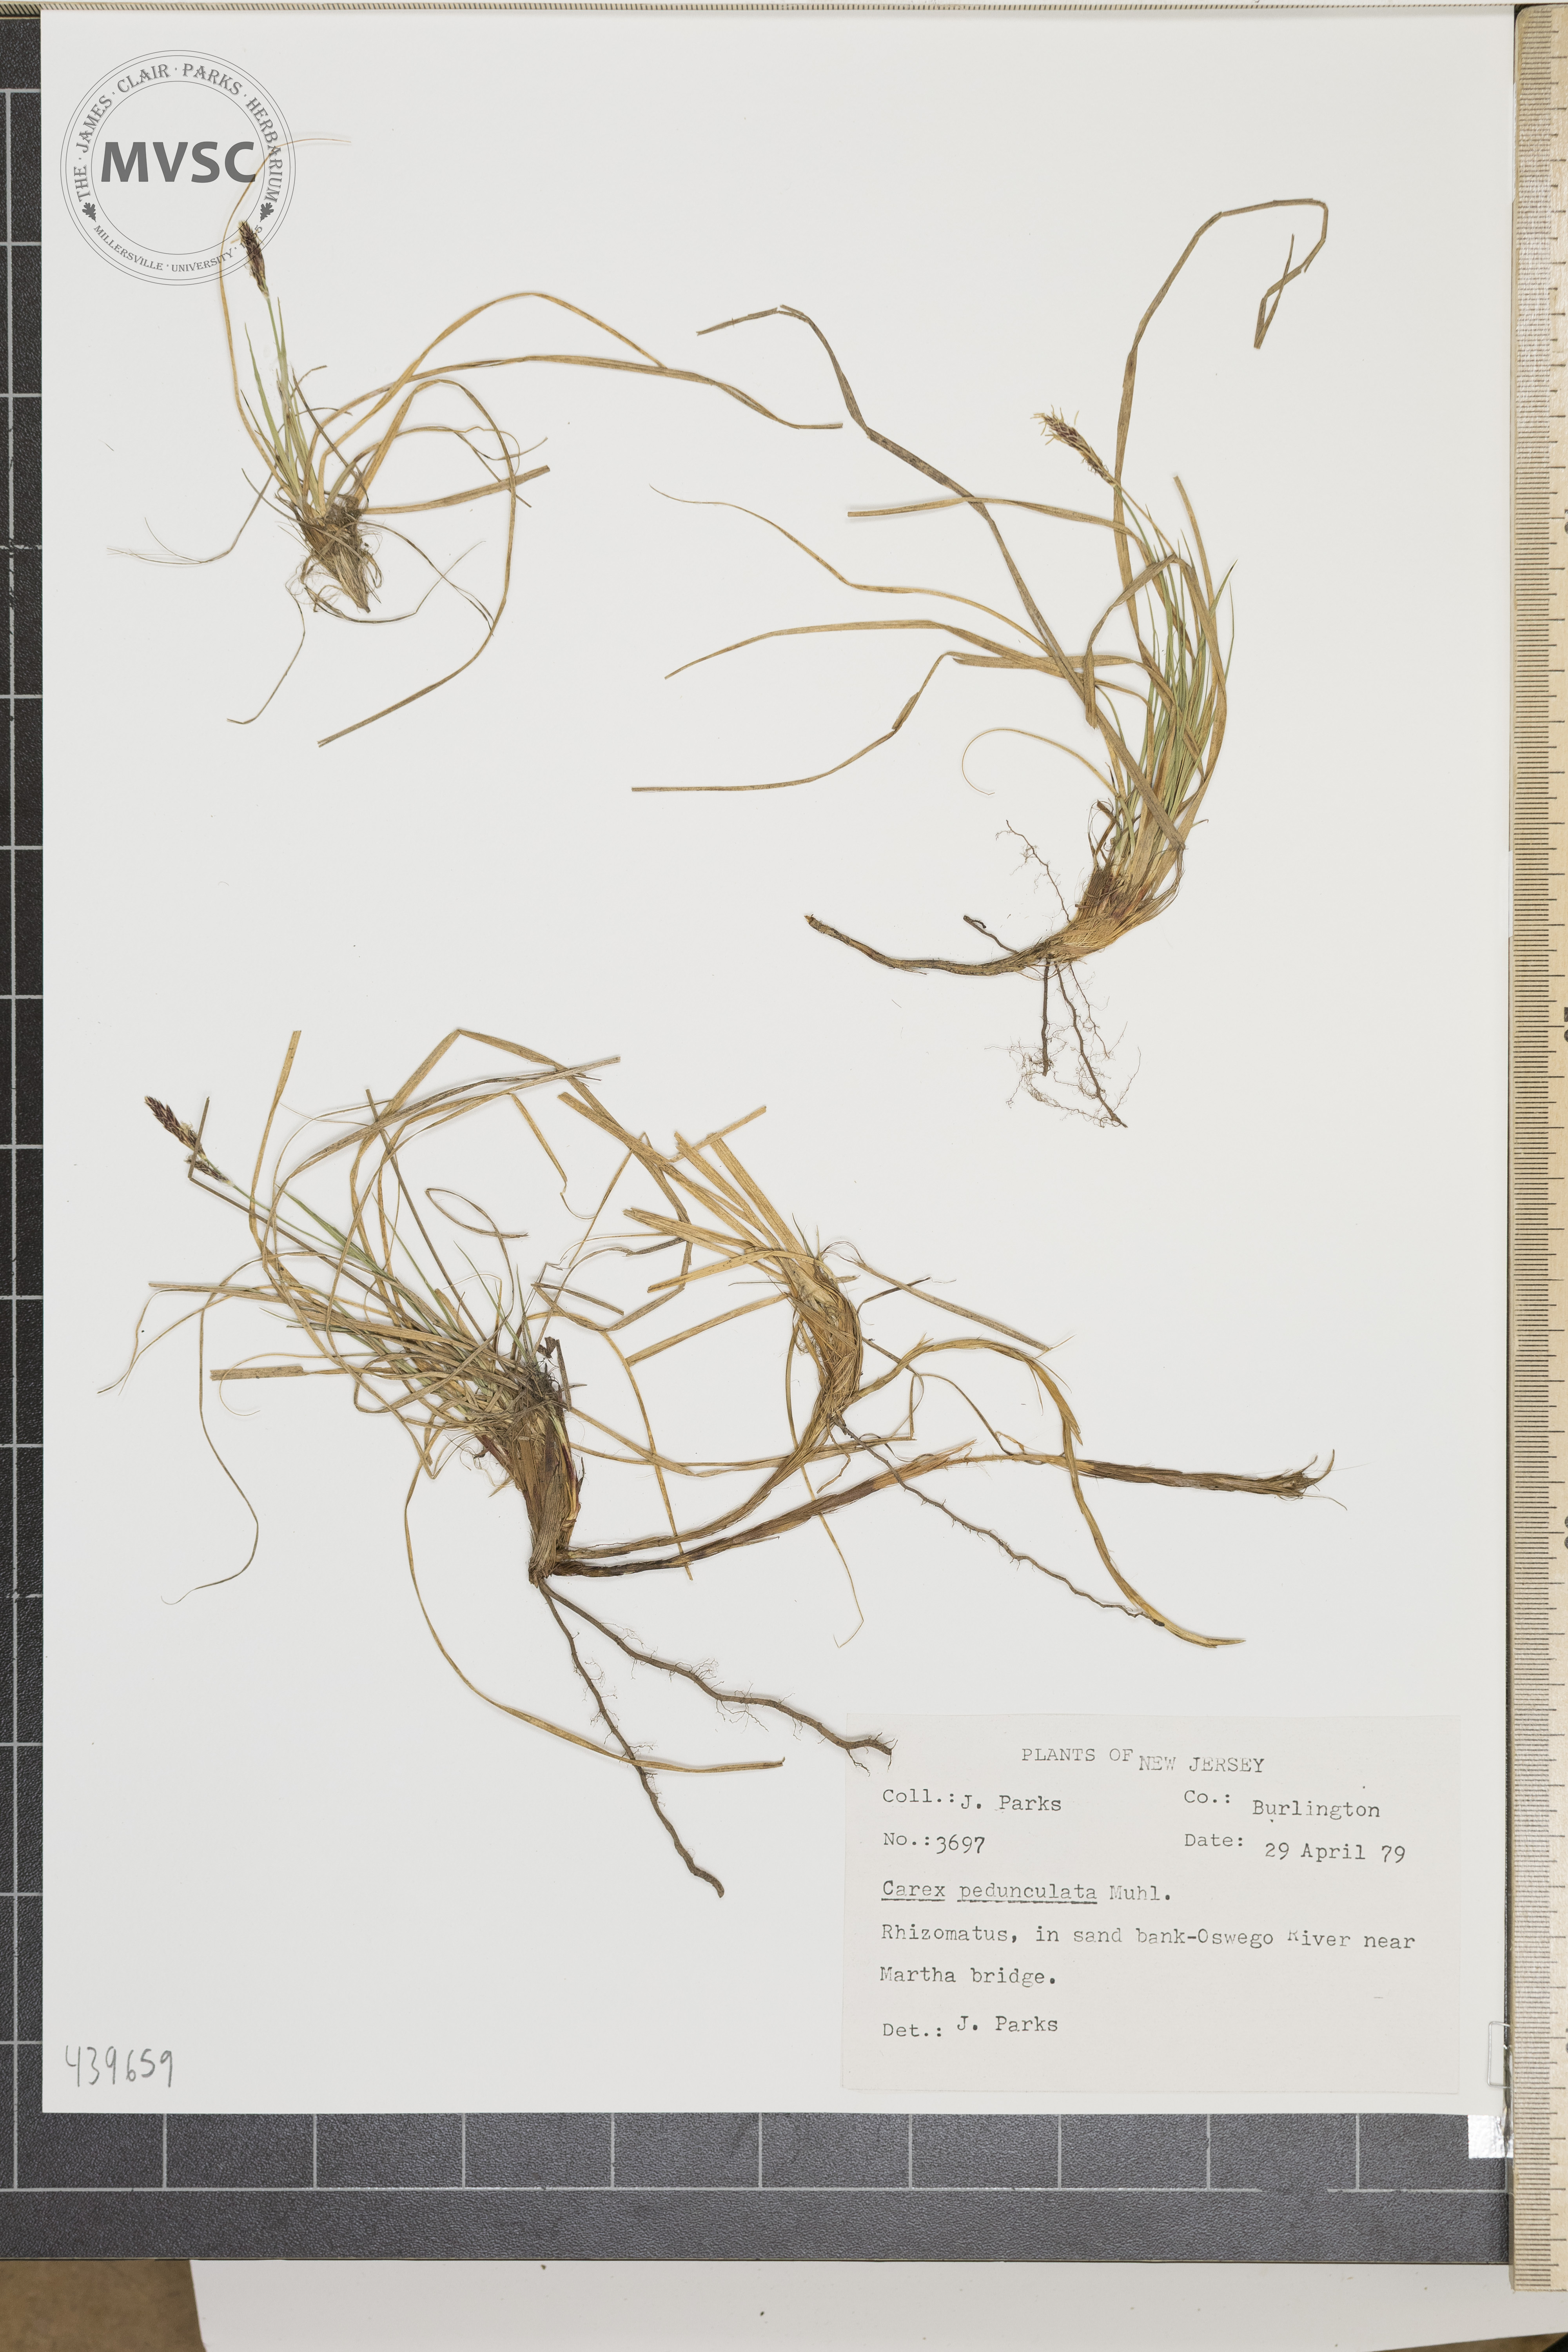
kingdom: Plantae
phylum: Tracheophyta
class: Liliopsida
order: Poales
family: Cyperaceae
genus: Carex
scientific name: Carex pedunculata
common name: Pedunculate sedge
